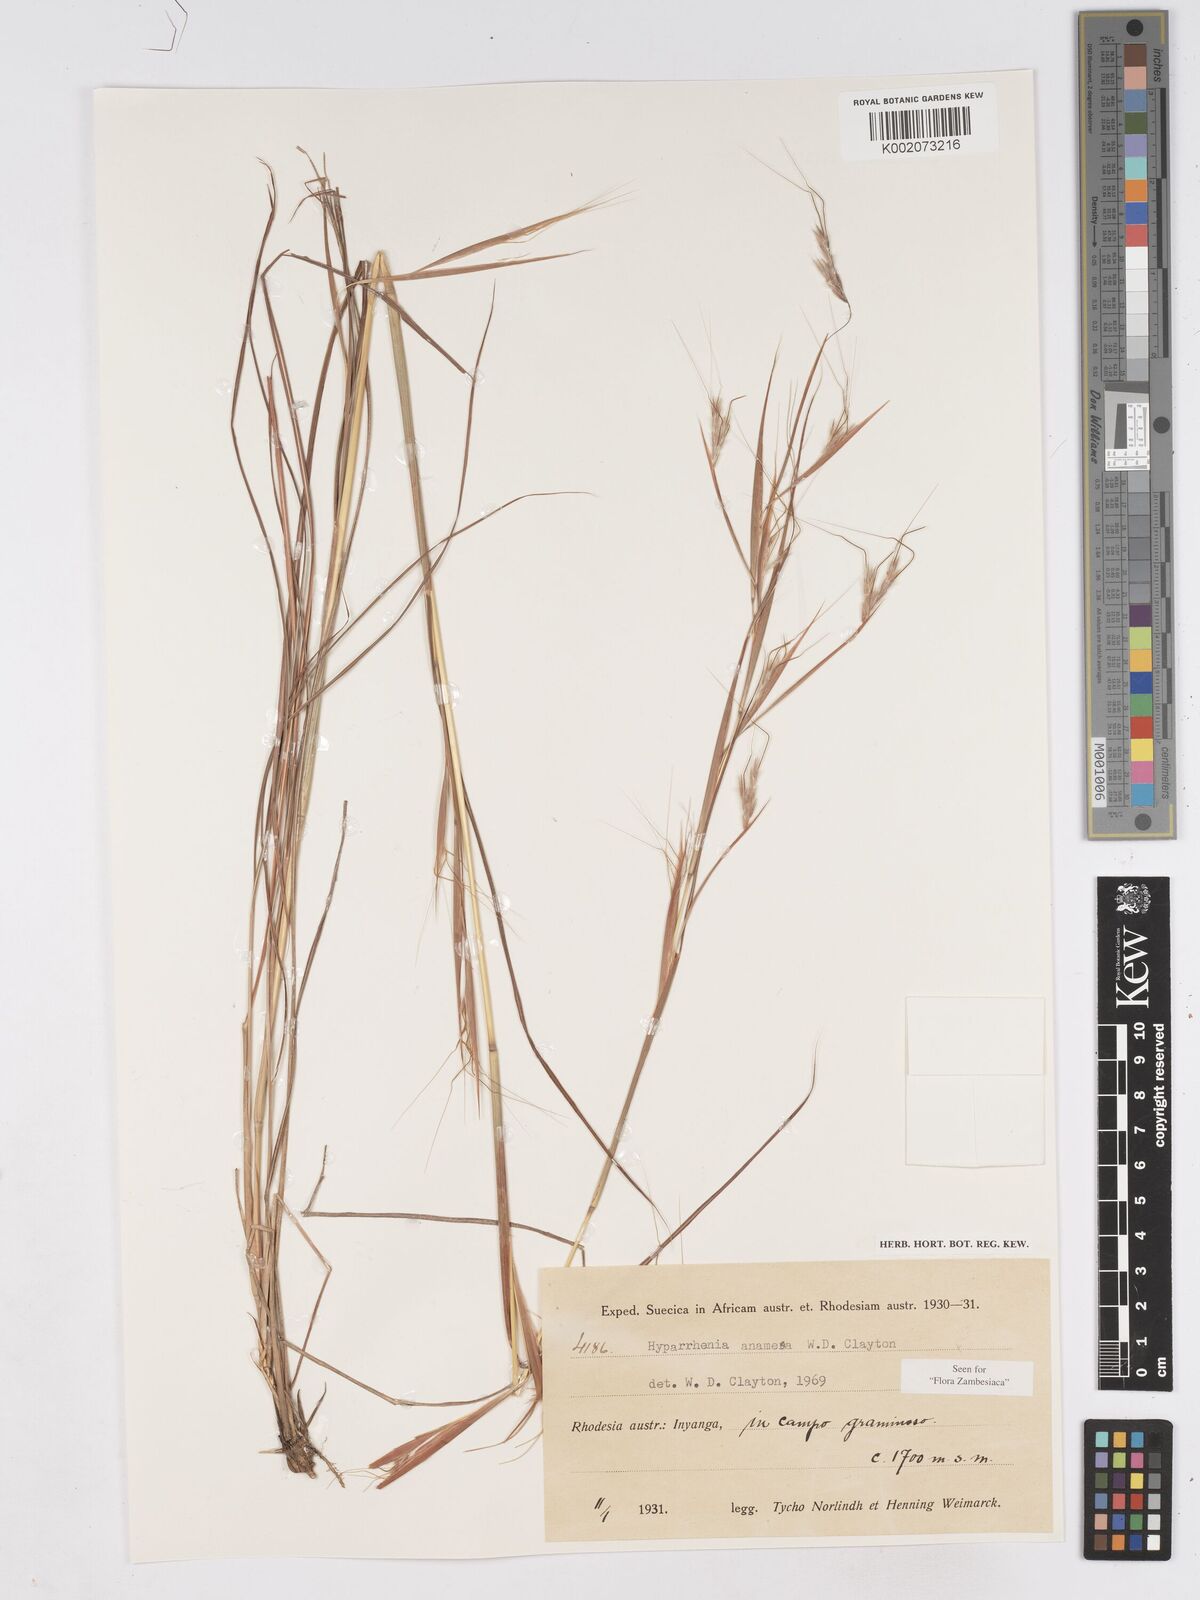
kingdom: Plantae
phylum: Tracheophyta
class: Liliopsida
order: Poales
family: Poaceae
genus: Hyparrhenia
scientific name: Hyparrhenia anamesa
